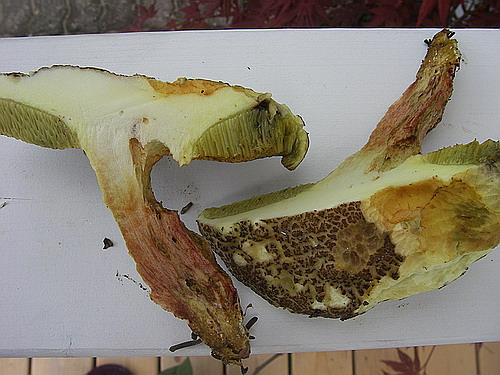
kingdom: Fungi
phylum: Basidiomycota
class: Agaricomycetes
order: Boletales
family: Boletaceae
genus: Xerocomellus
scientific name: Xerocomellus chrysenteron
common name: rødsprukken rørhat
